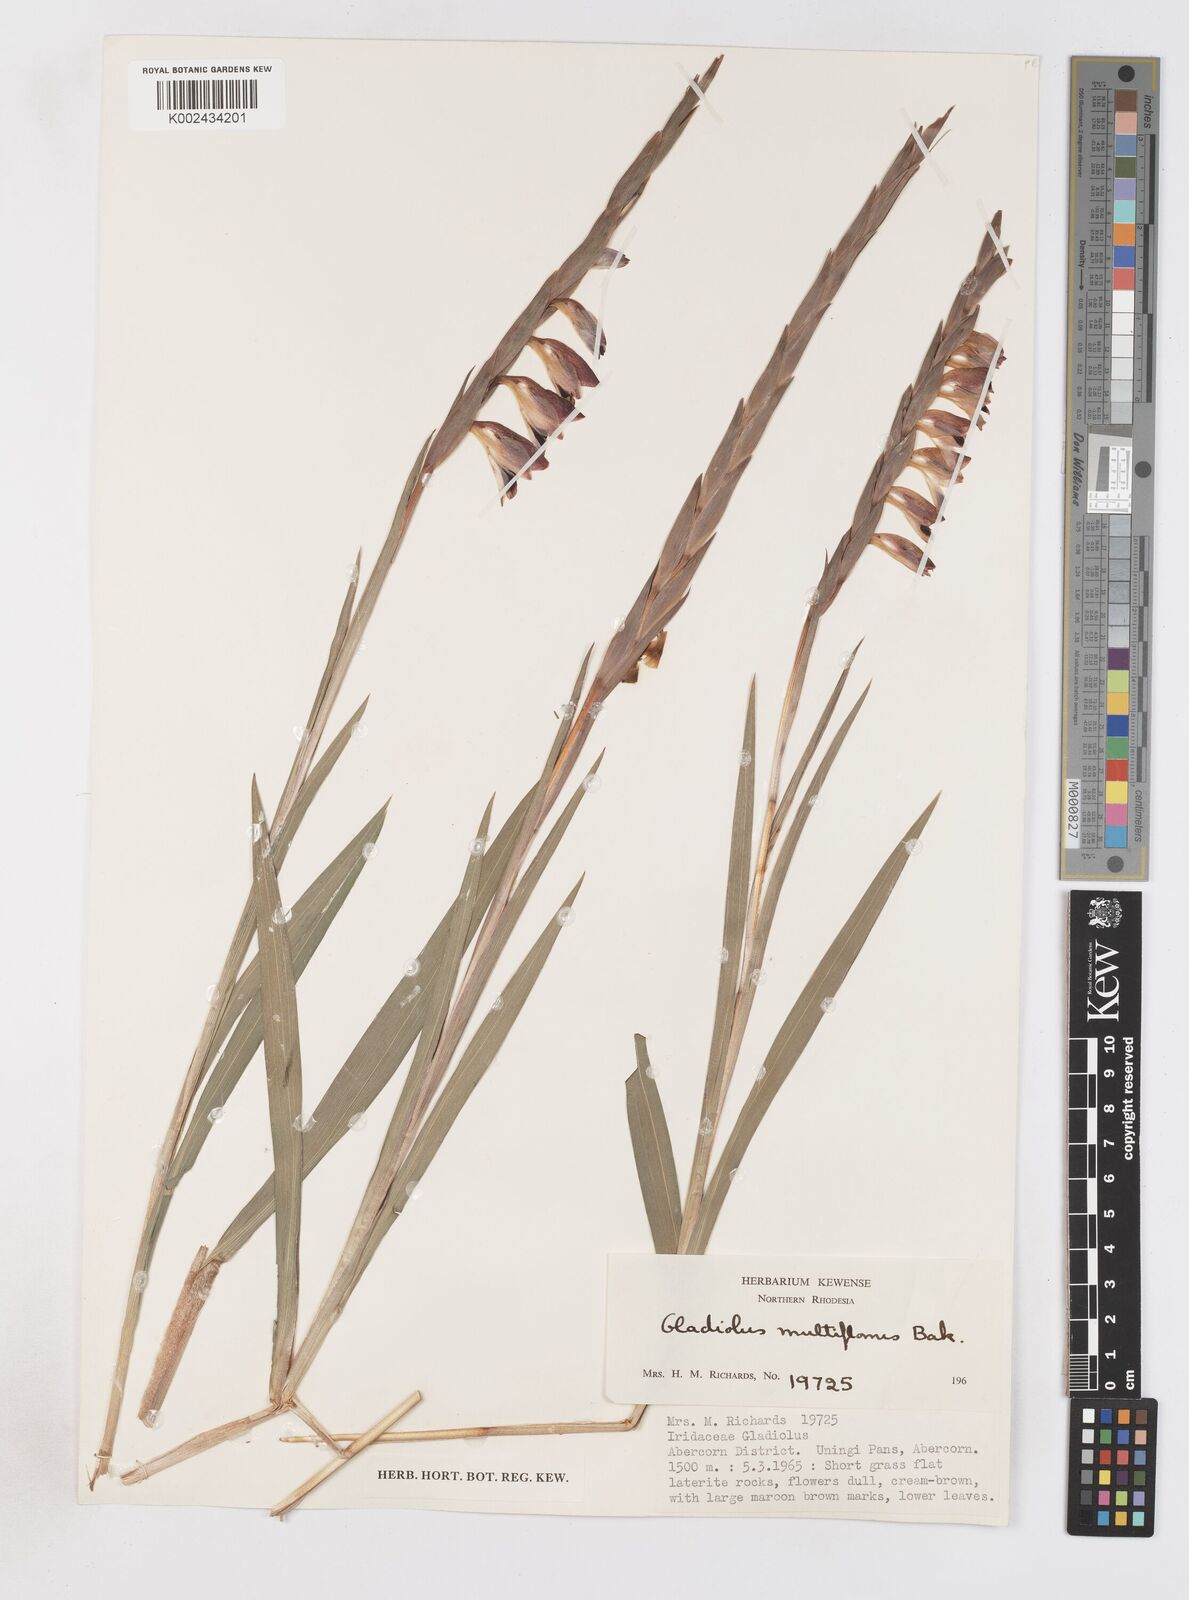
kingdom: Plantae
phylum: Tracheophyta
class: Liliopsida
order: Asparagales
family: Iridaceae
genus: Gladiolus
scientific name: Gladiolus gregarius
